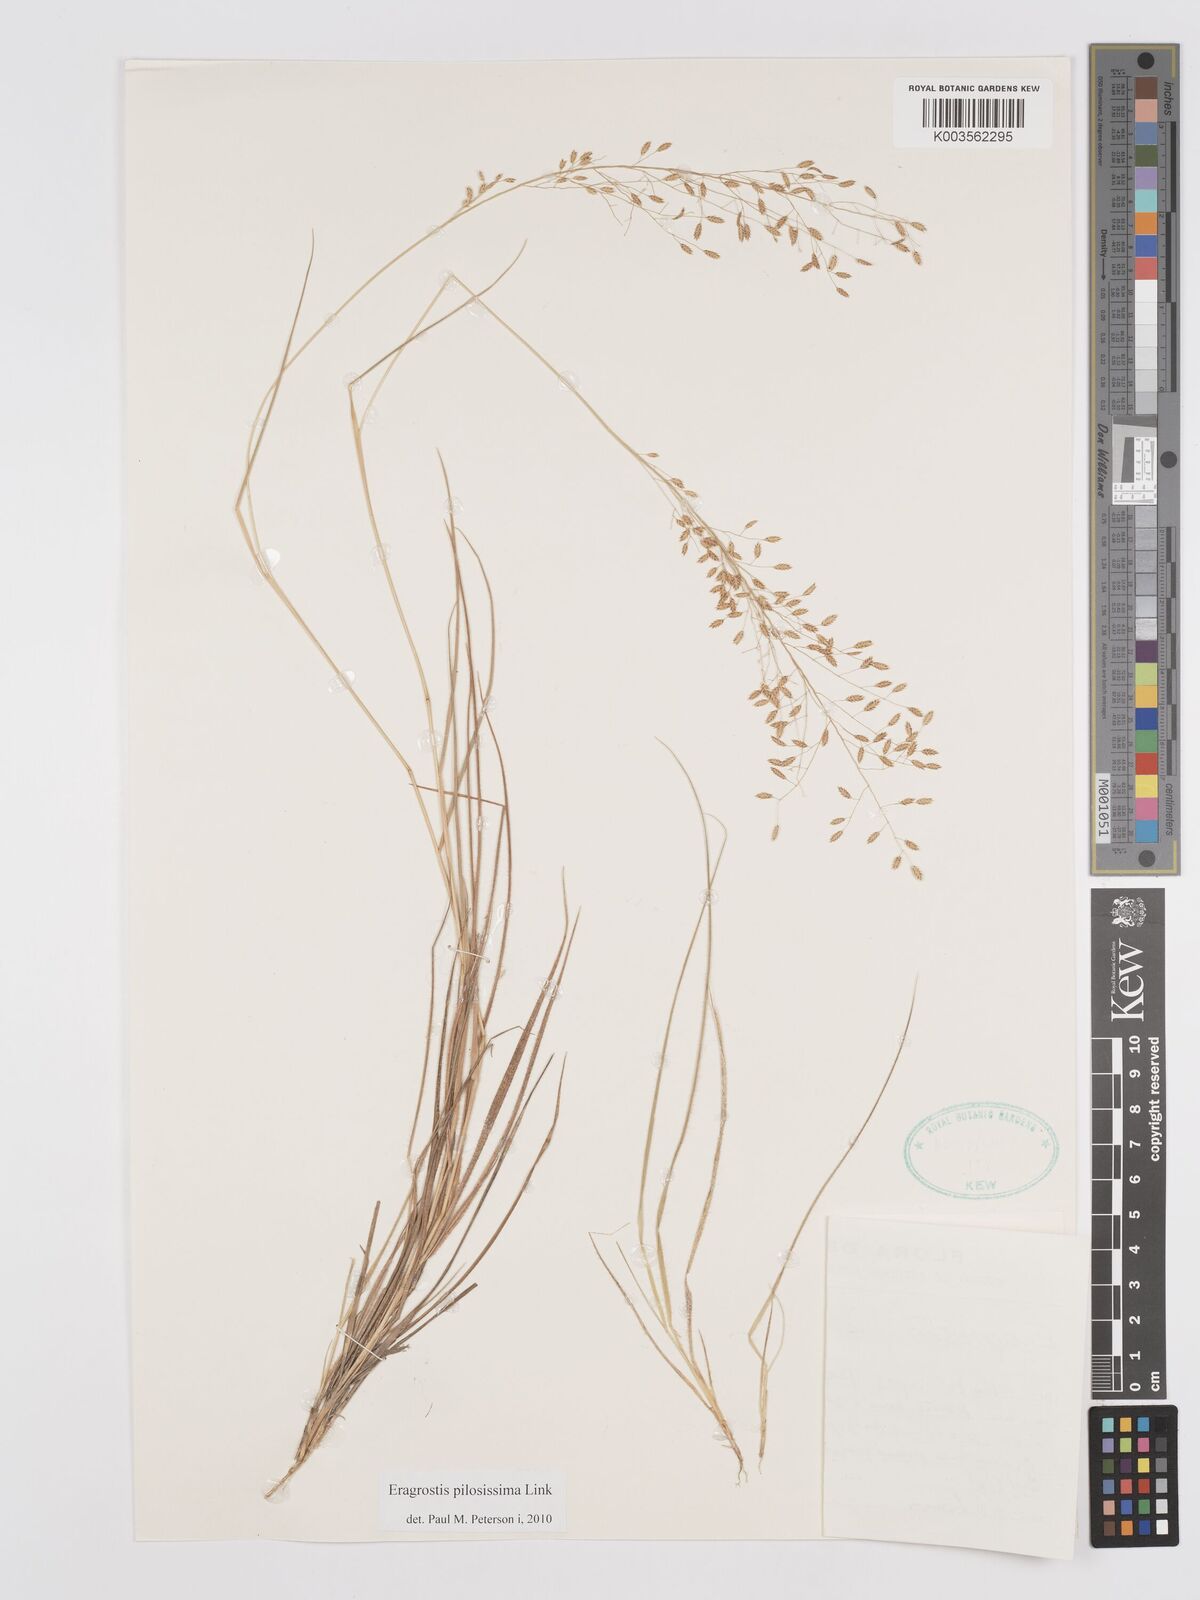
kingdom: Plantae
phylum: Tracheophyta
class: Liliopsida
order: Poales
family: Poaceae
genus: Eragrostis
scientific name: Eragrostis pilosissima
